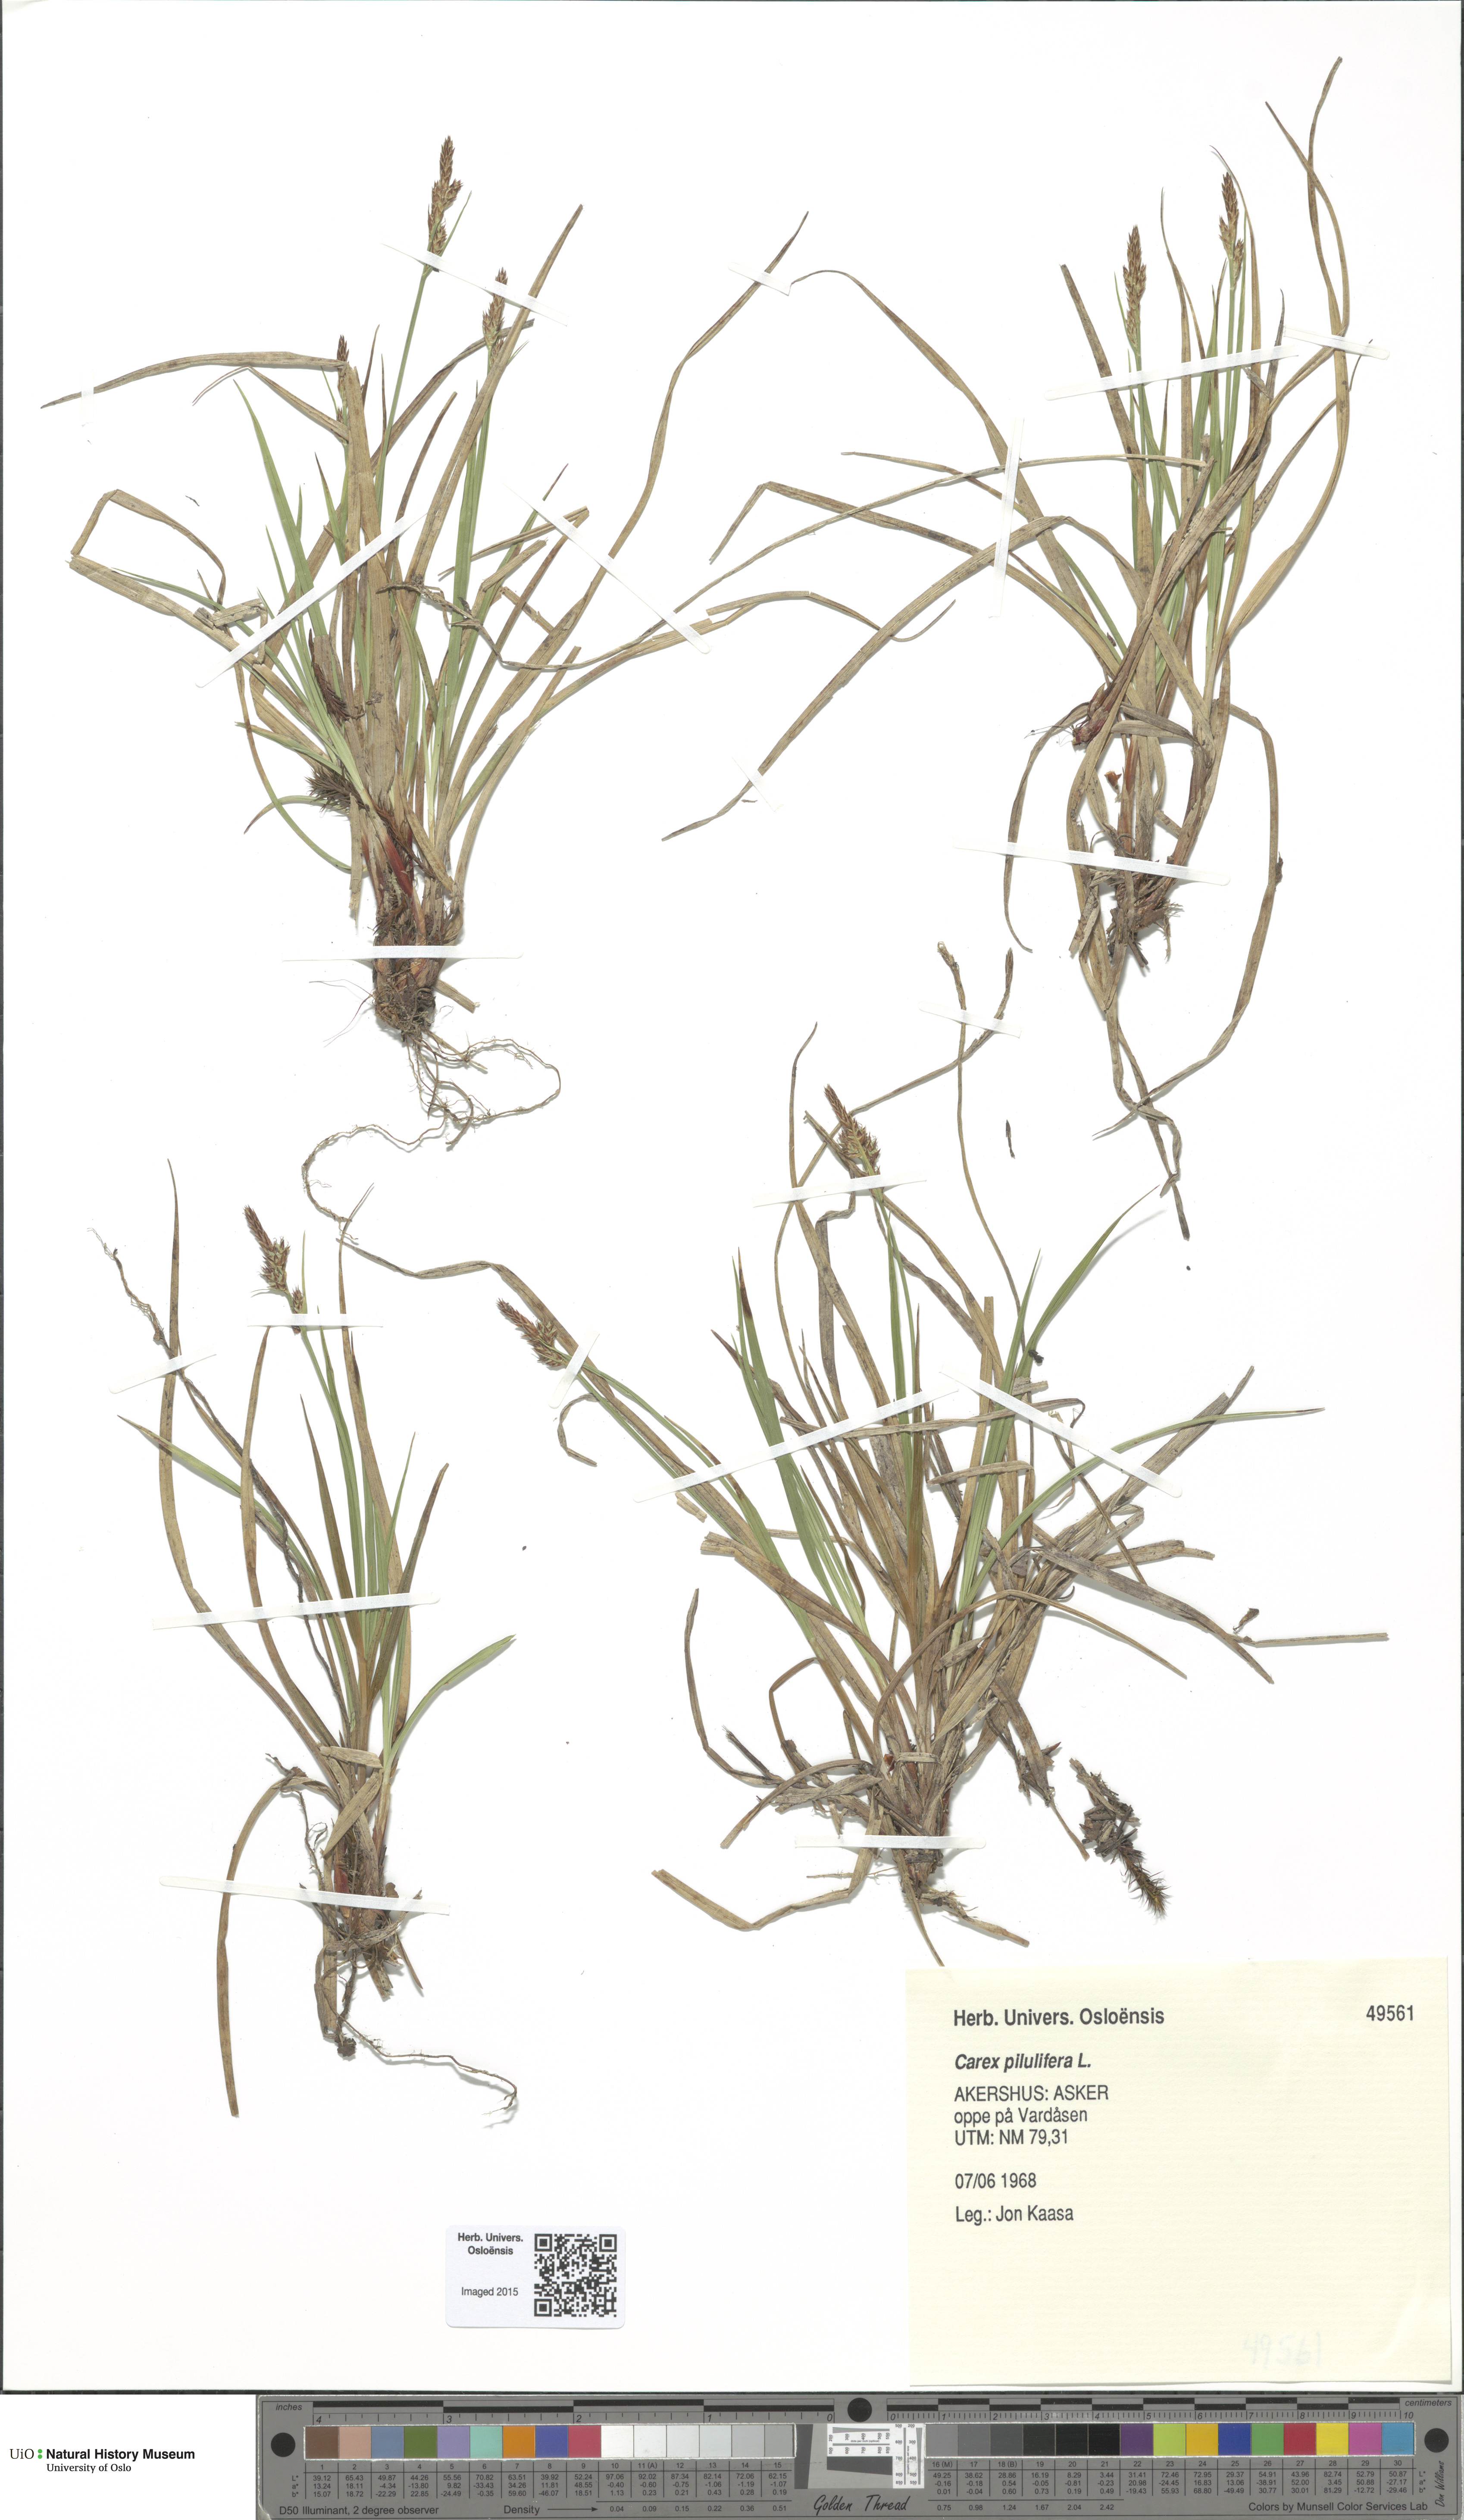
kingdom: Plantae
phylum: Tracheophyta
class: Liliopsida
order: Poales
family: Cyperaceae
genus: Carex
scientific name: Carex pilulifera
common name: Pill sedge
